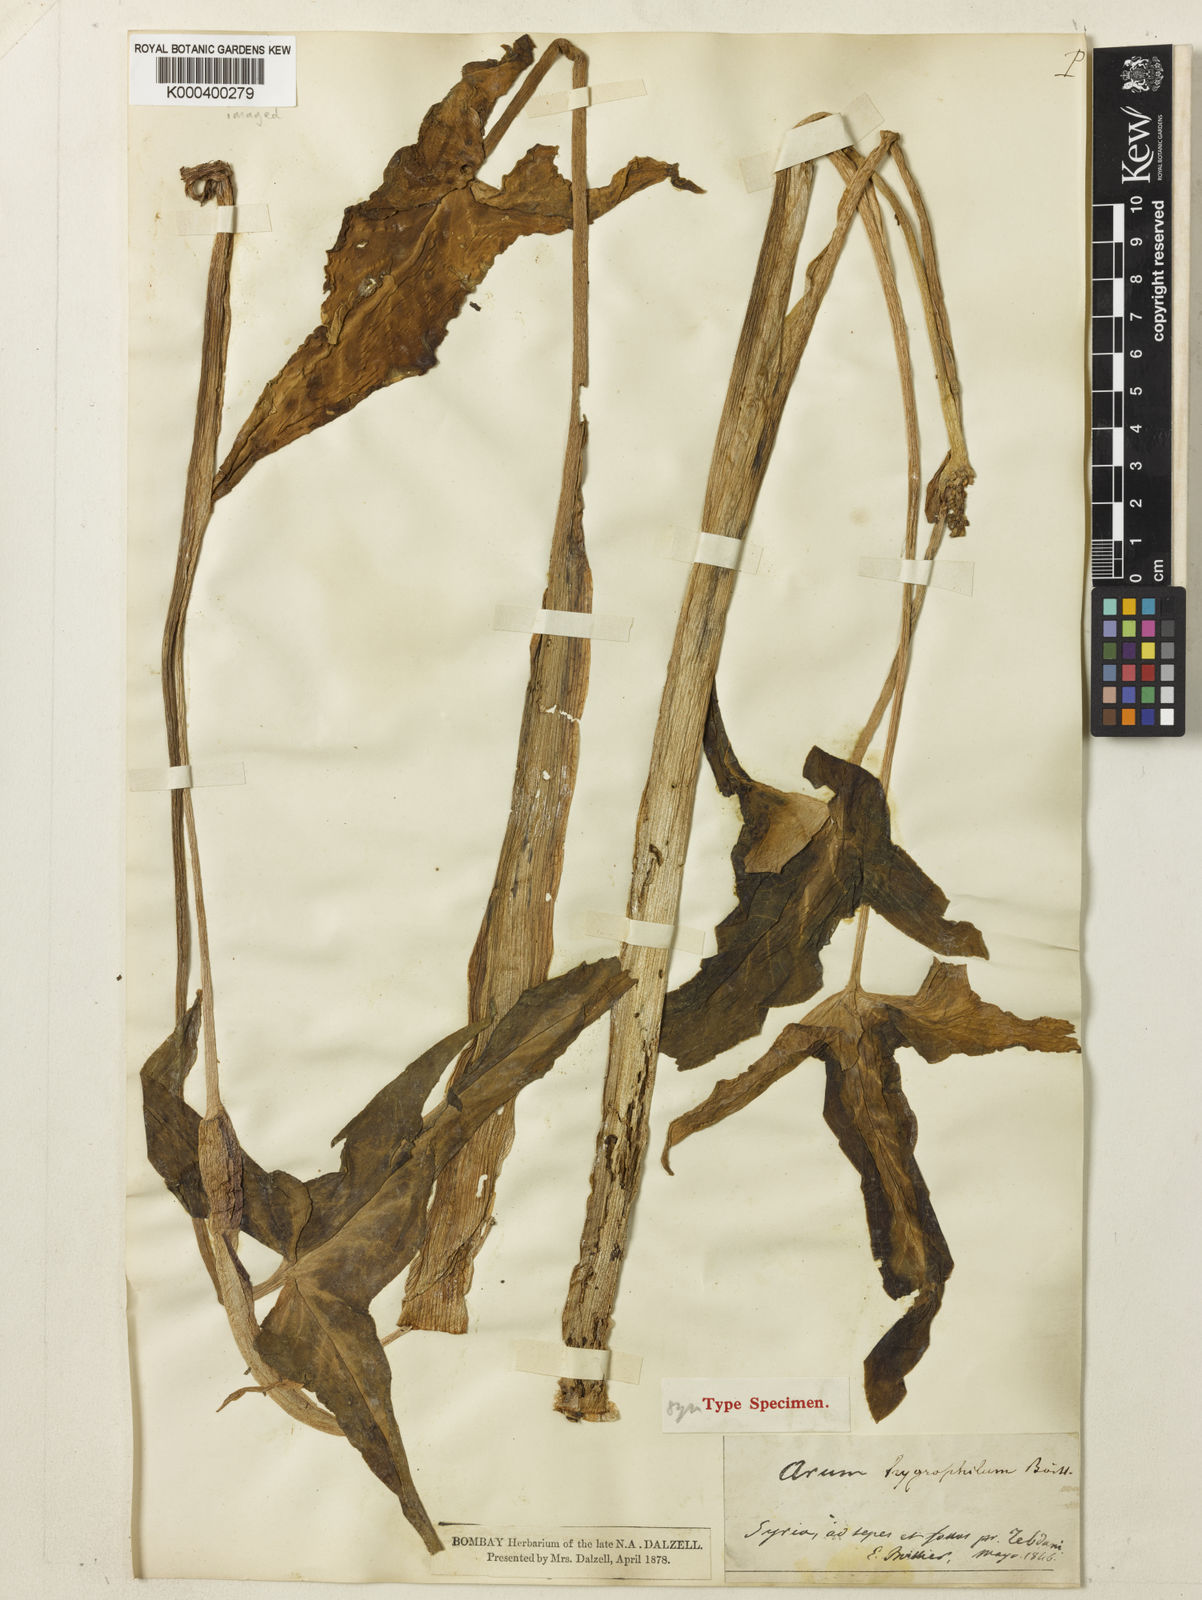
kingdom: Plantae
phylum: Tracheophyta
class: Liliopsida
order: Alismatales
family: Araceae
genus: Arum
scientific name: Arum hygrophilum
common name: Water arum
